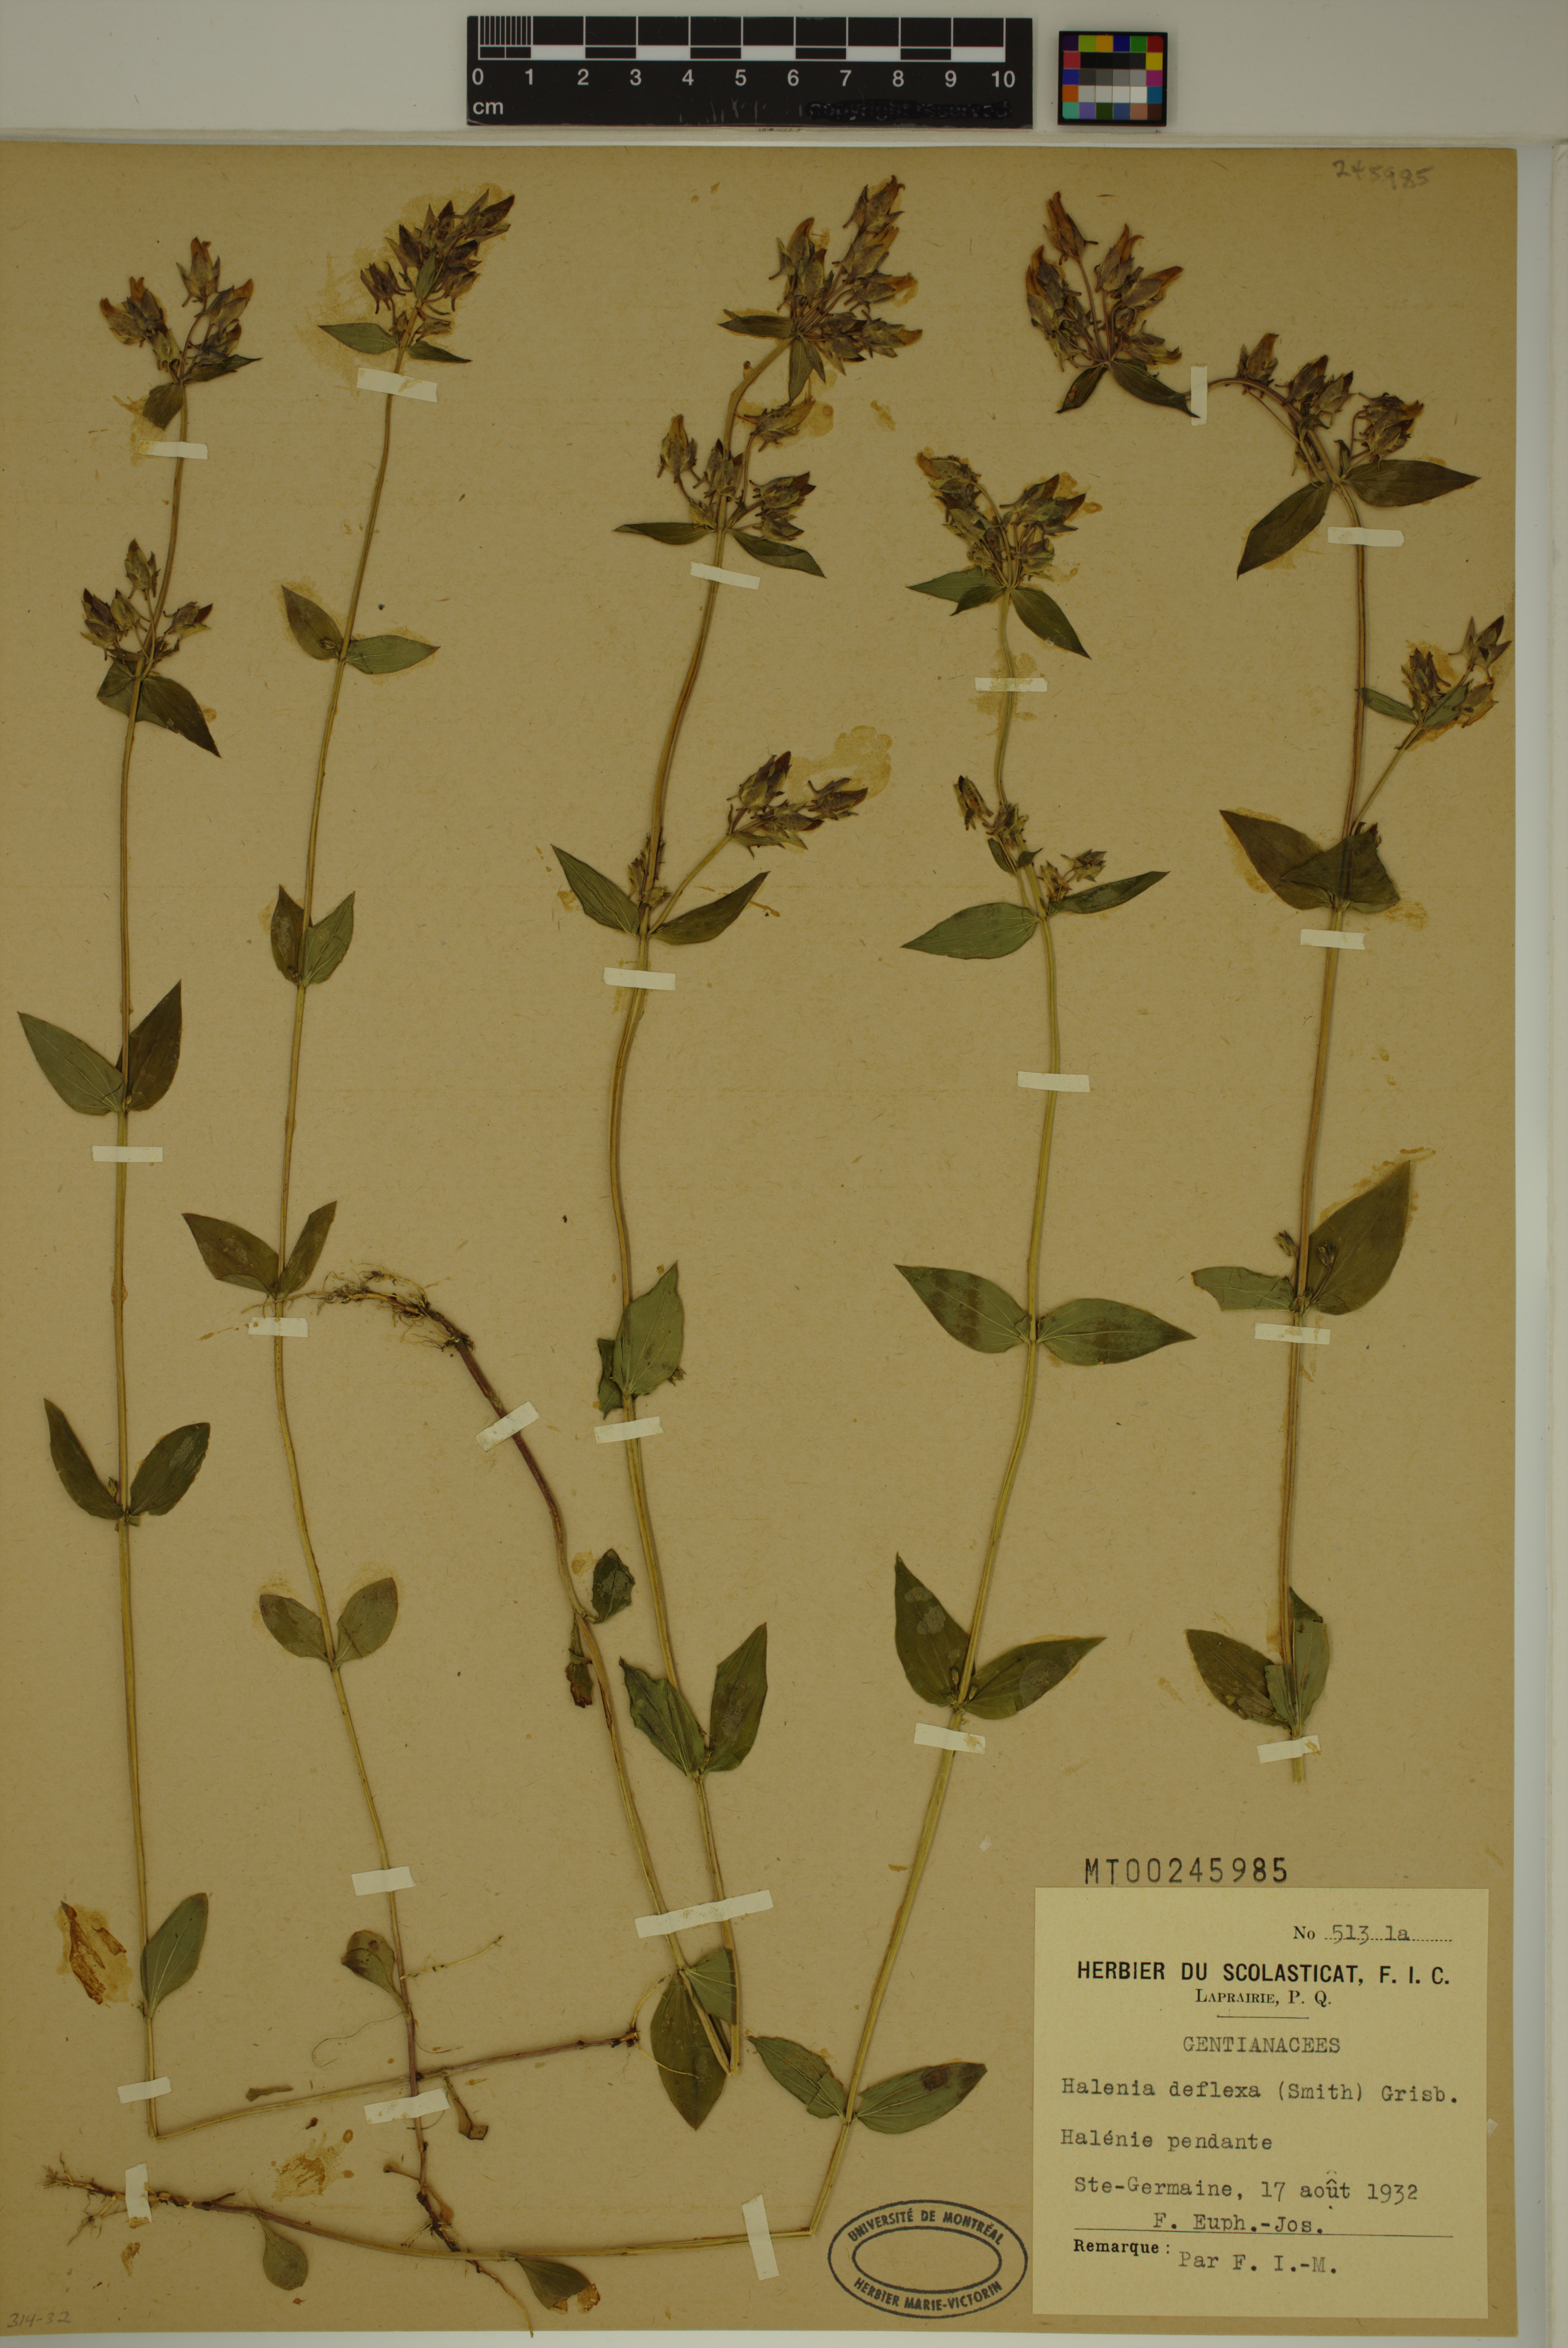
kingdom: Plantae
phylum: Tracheophyta
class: Magnoliopsida
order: Gentianales
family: Gentianaceae
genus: Halenia
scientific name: Halenia deflexa
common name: American spurred gentian
